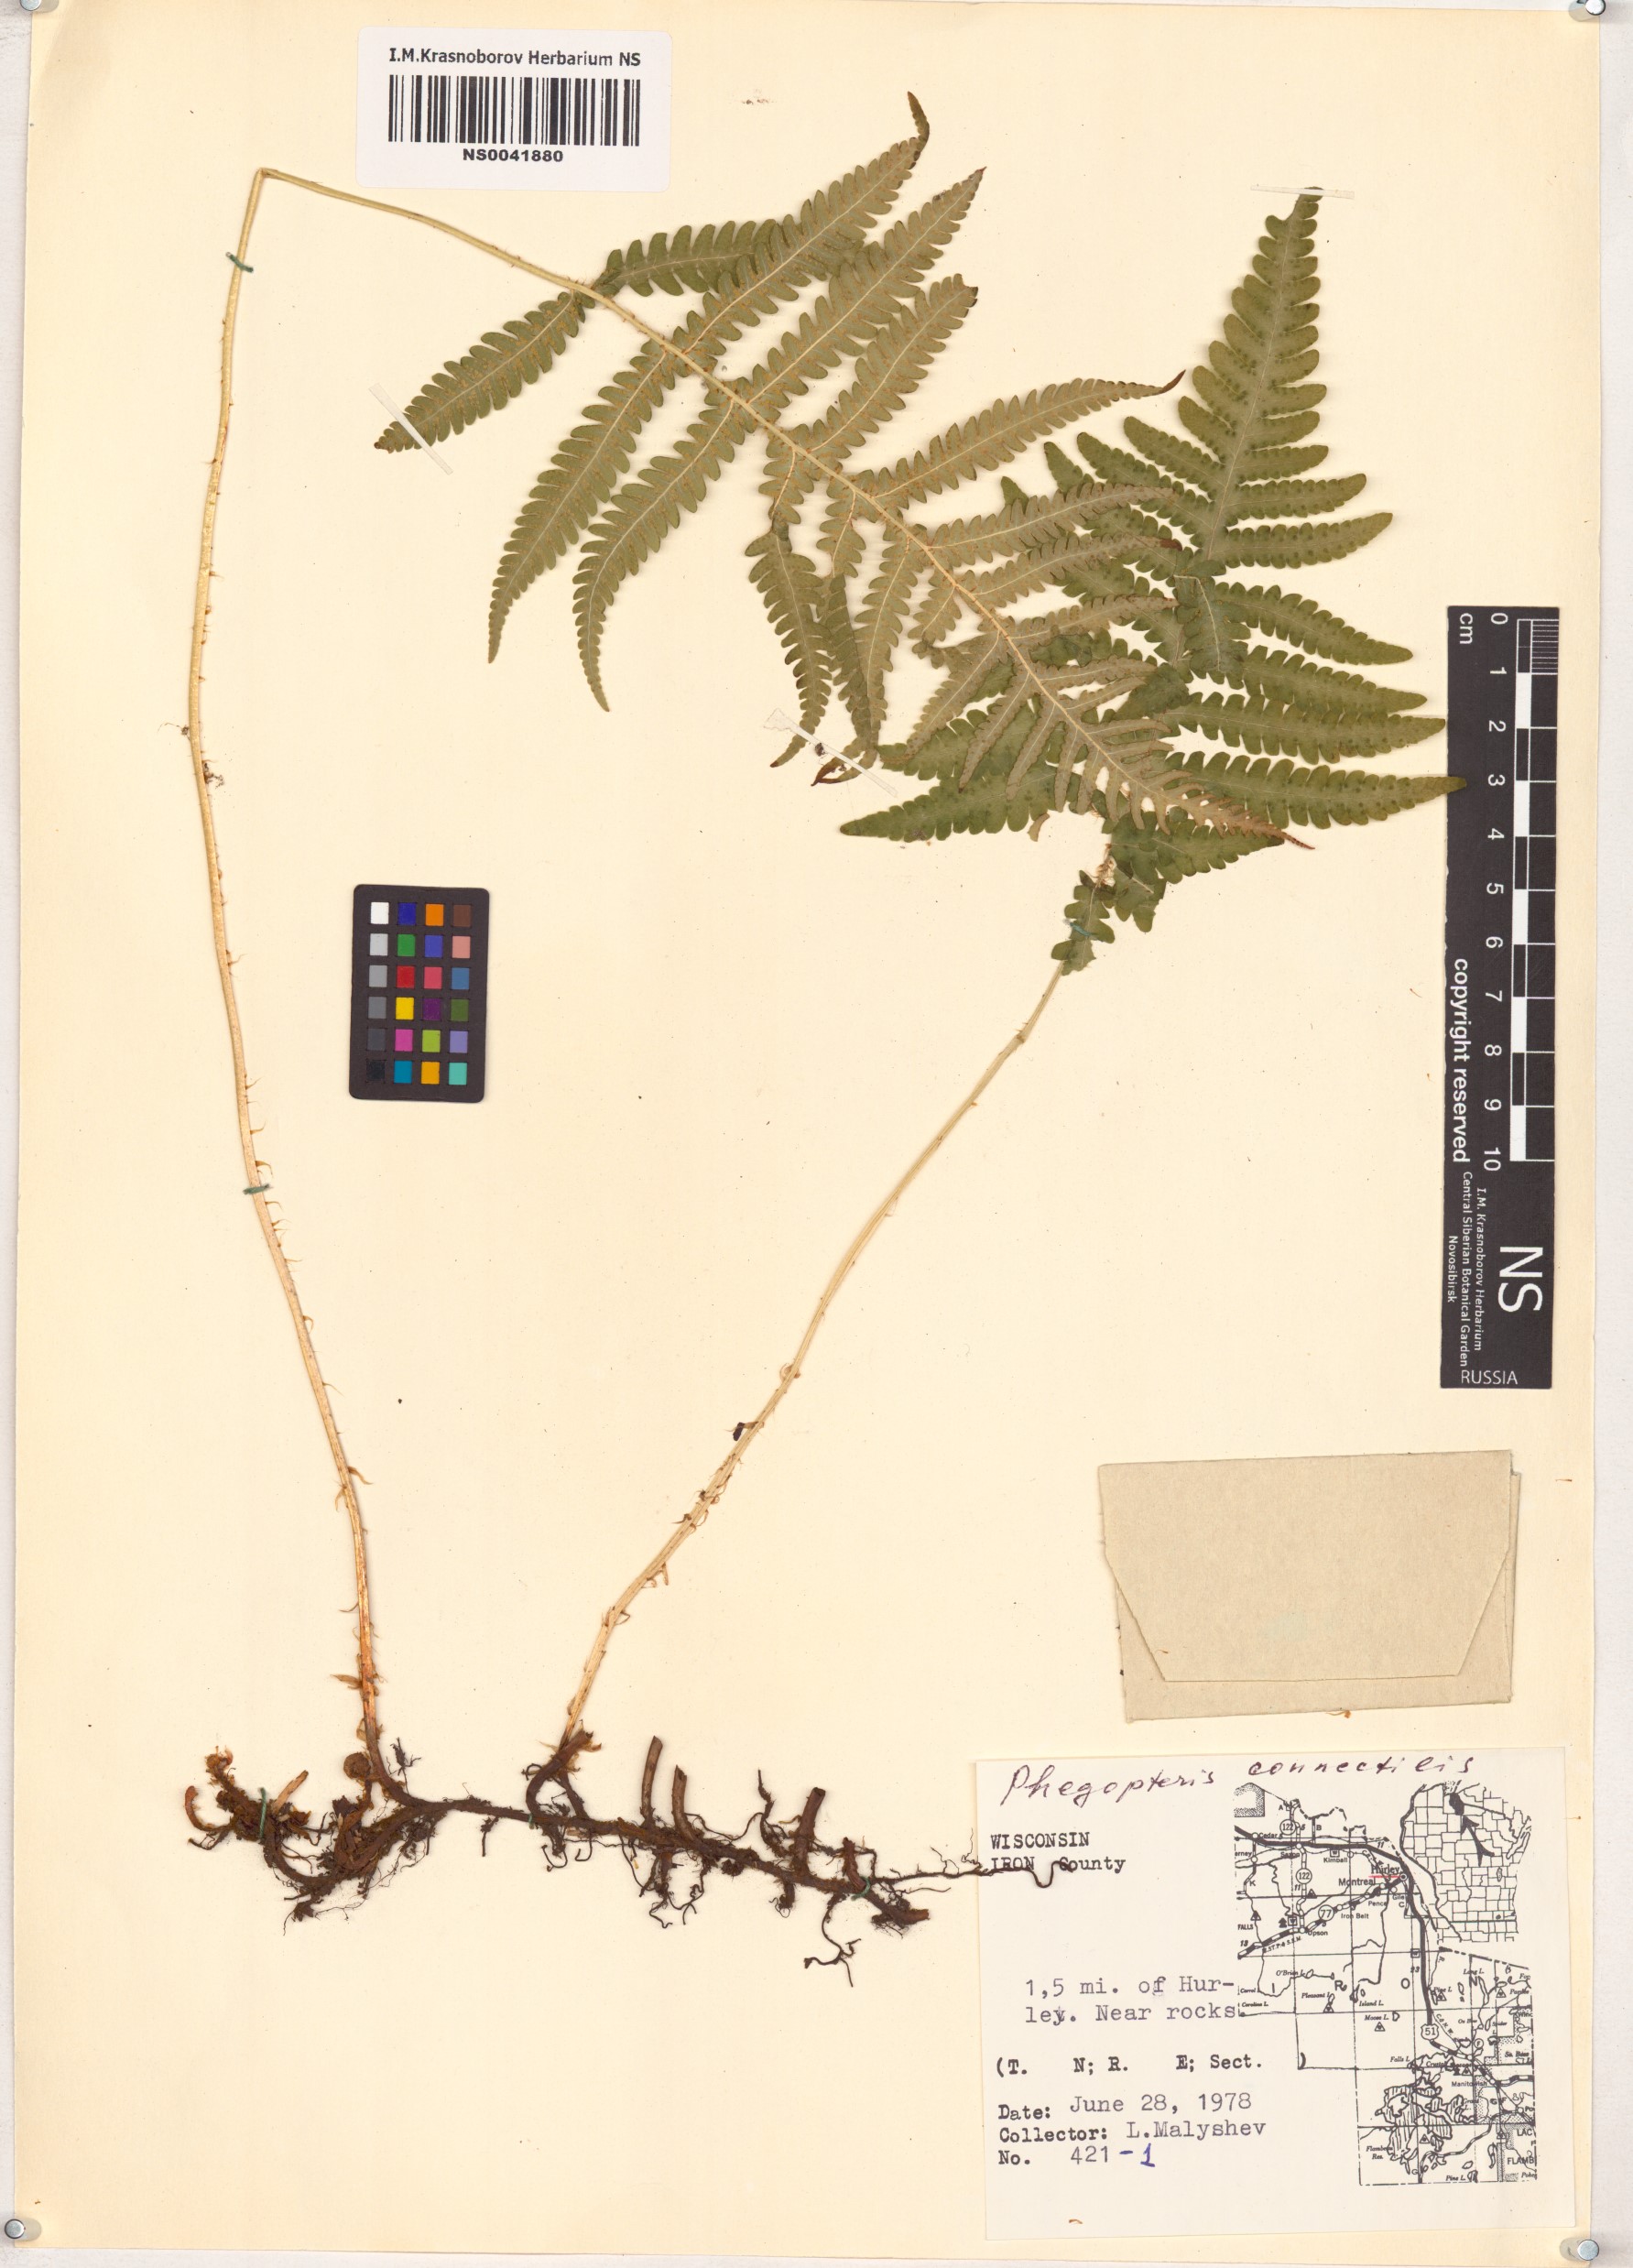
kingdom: Plantae
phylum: Tracheophyta
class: Polypodiopsida
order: Polypodiales
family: Thelypteridaceae
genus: Phegopteris
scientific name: Phegopteris connectilis
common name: Beech fern
